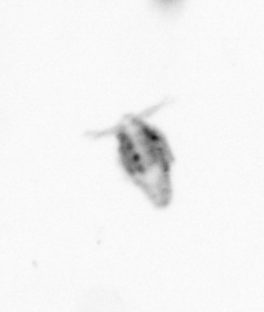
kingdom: Animalia
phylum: Arthropoda
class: Copepoda
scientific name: Copepoda
